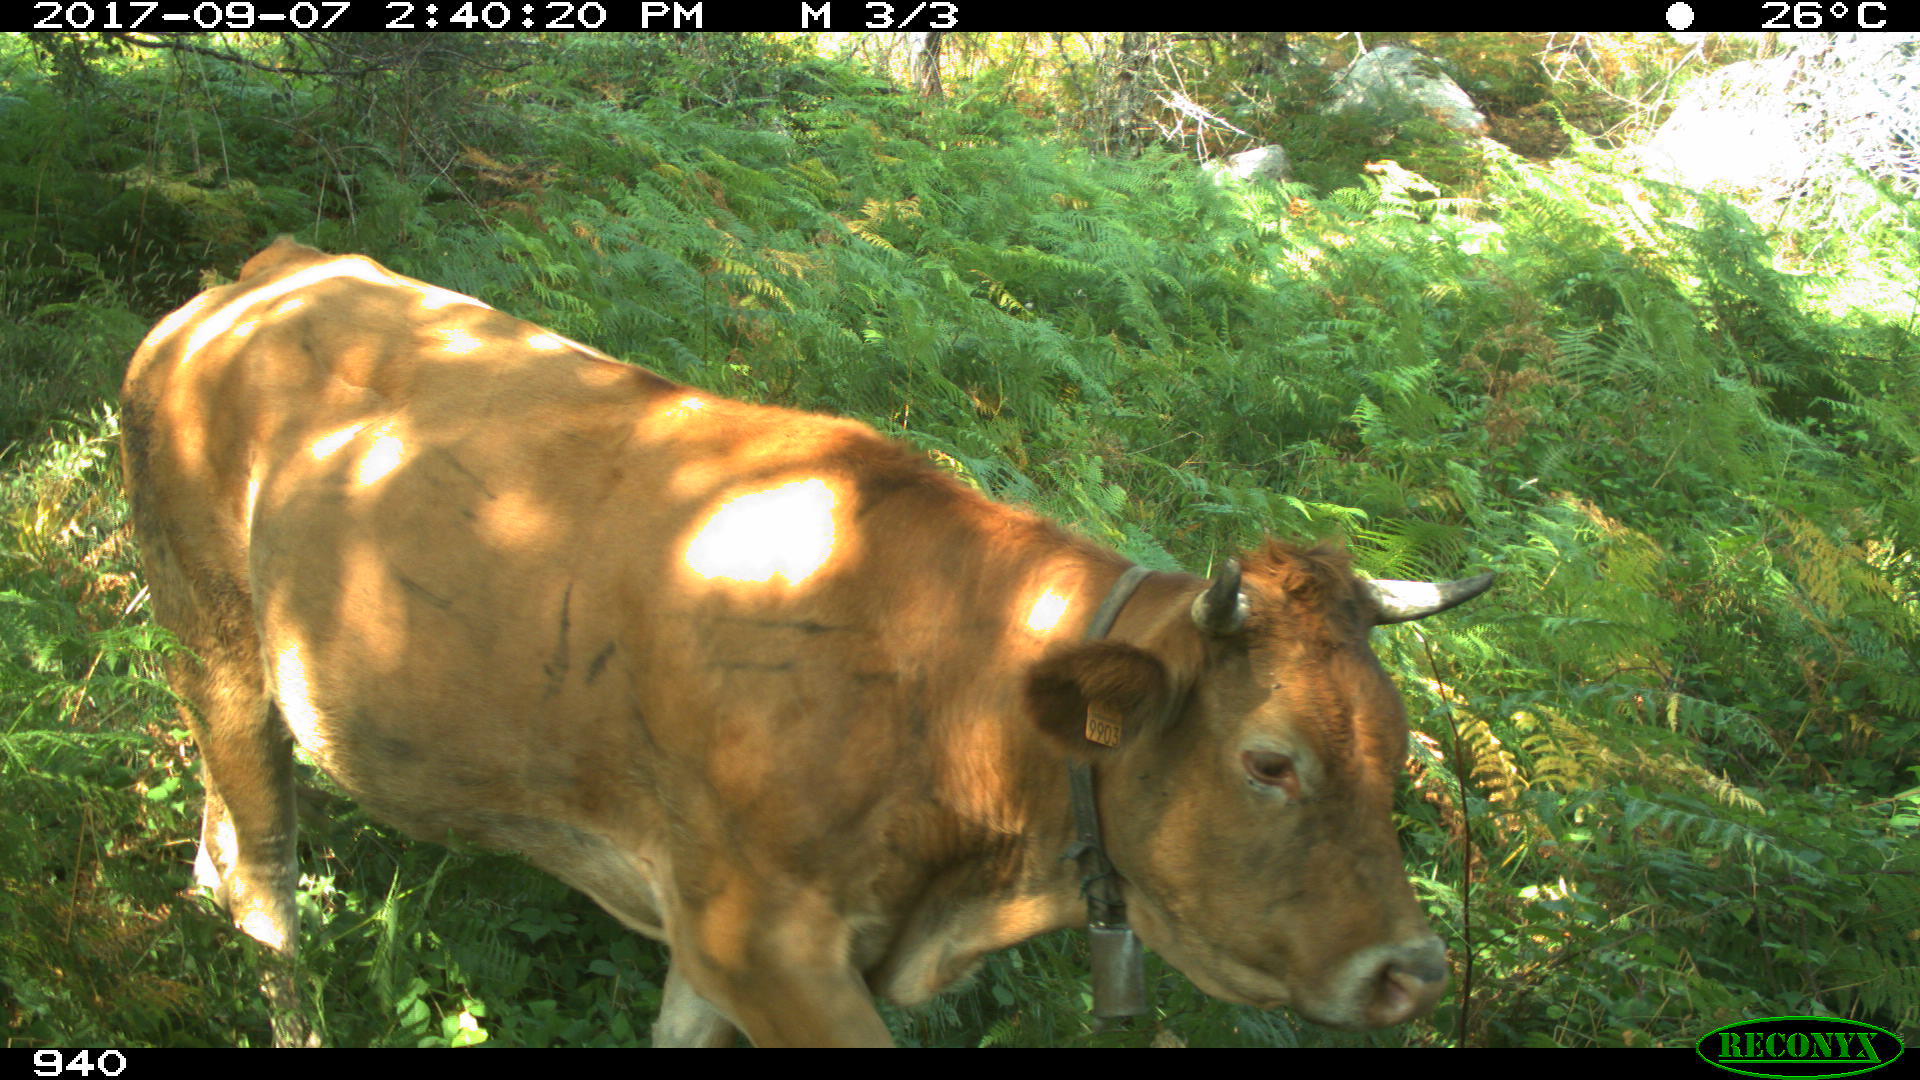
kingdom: Animalia
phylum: Chordata
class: Mammalia
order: Artiodactyla
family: Bovidae
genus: Bos
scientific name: Bos taurus
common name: Domesticated cattle
